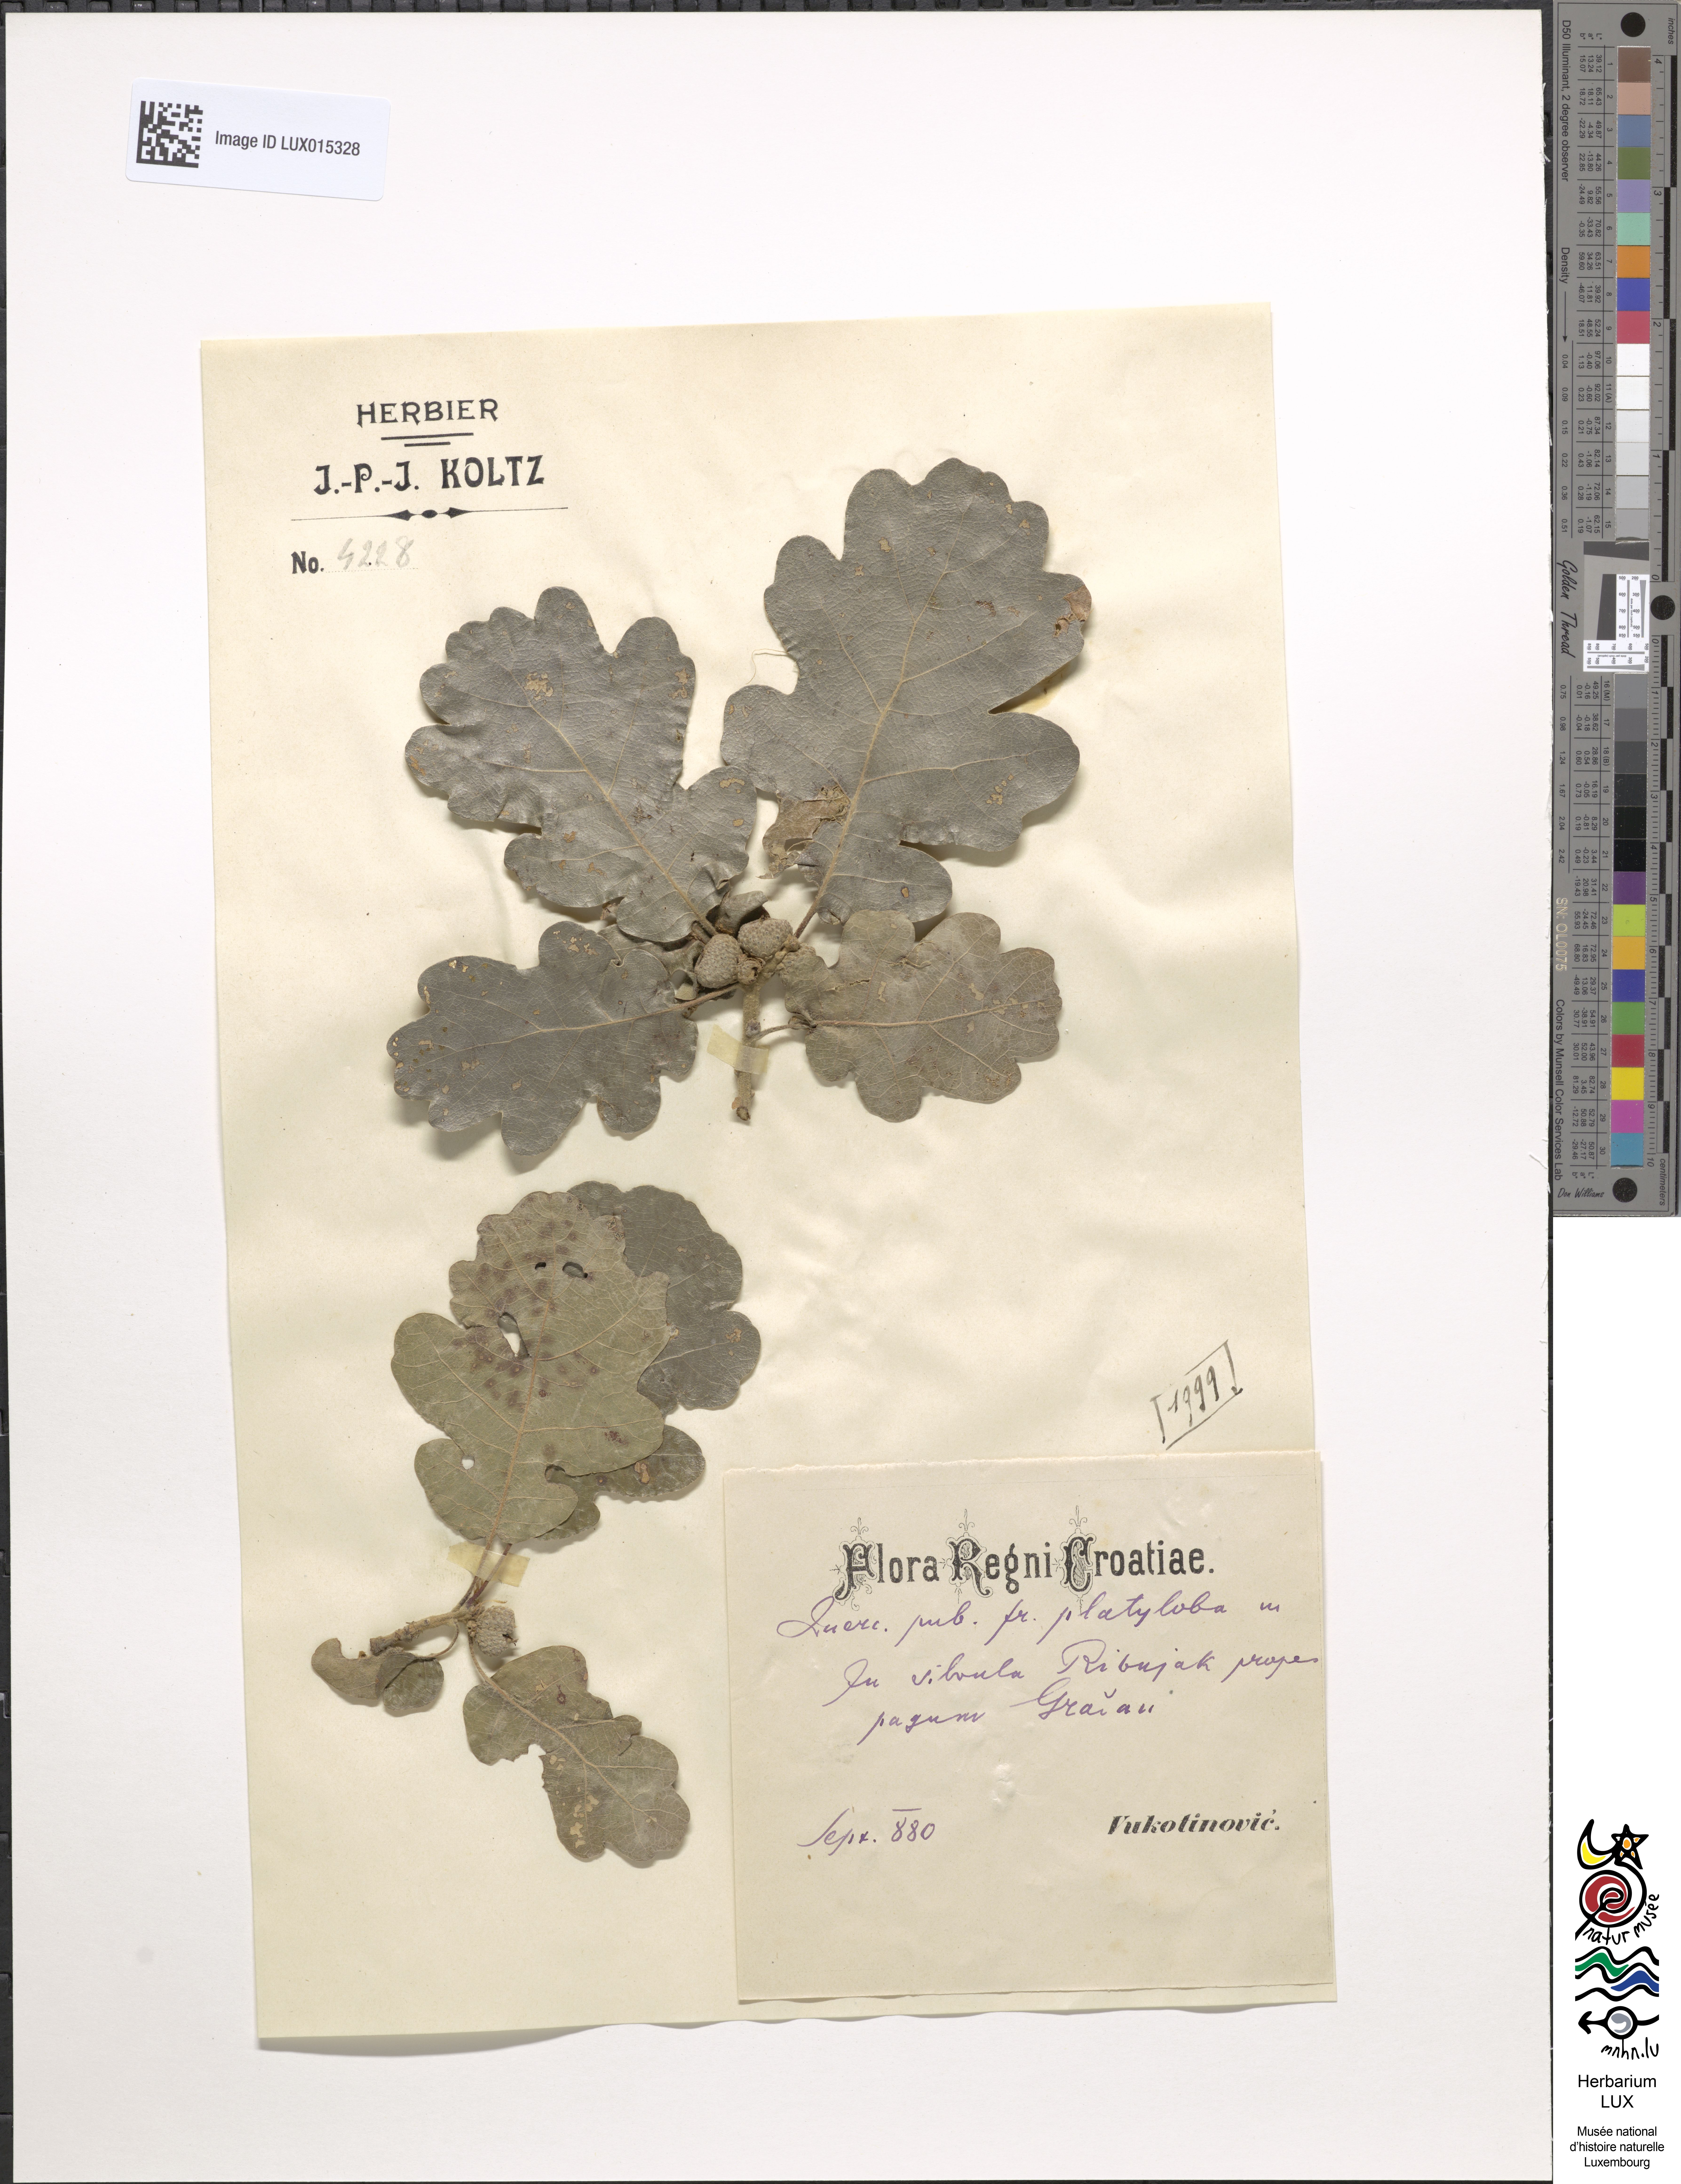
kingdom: Plantae
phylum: Tracheophyta
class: Magnoliopsida
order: Fagales
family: Fagaceae
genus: Quercus
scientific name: Quercus pubescens
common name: Downy oak
